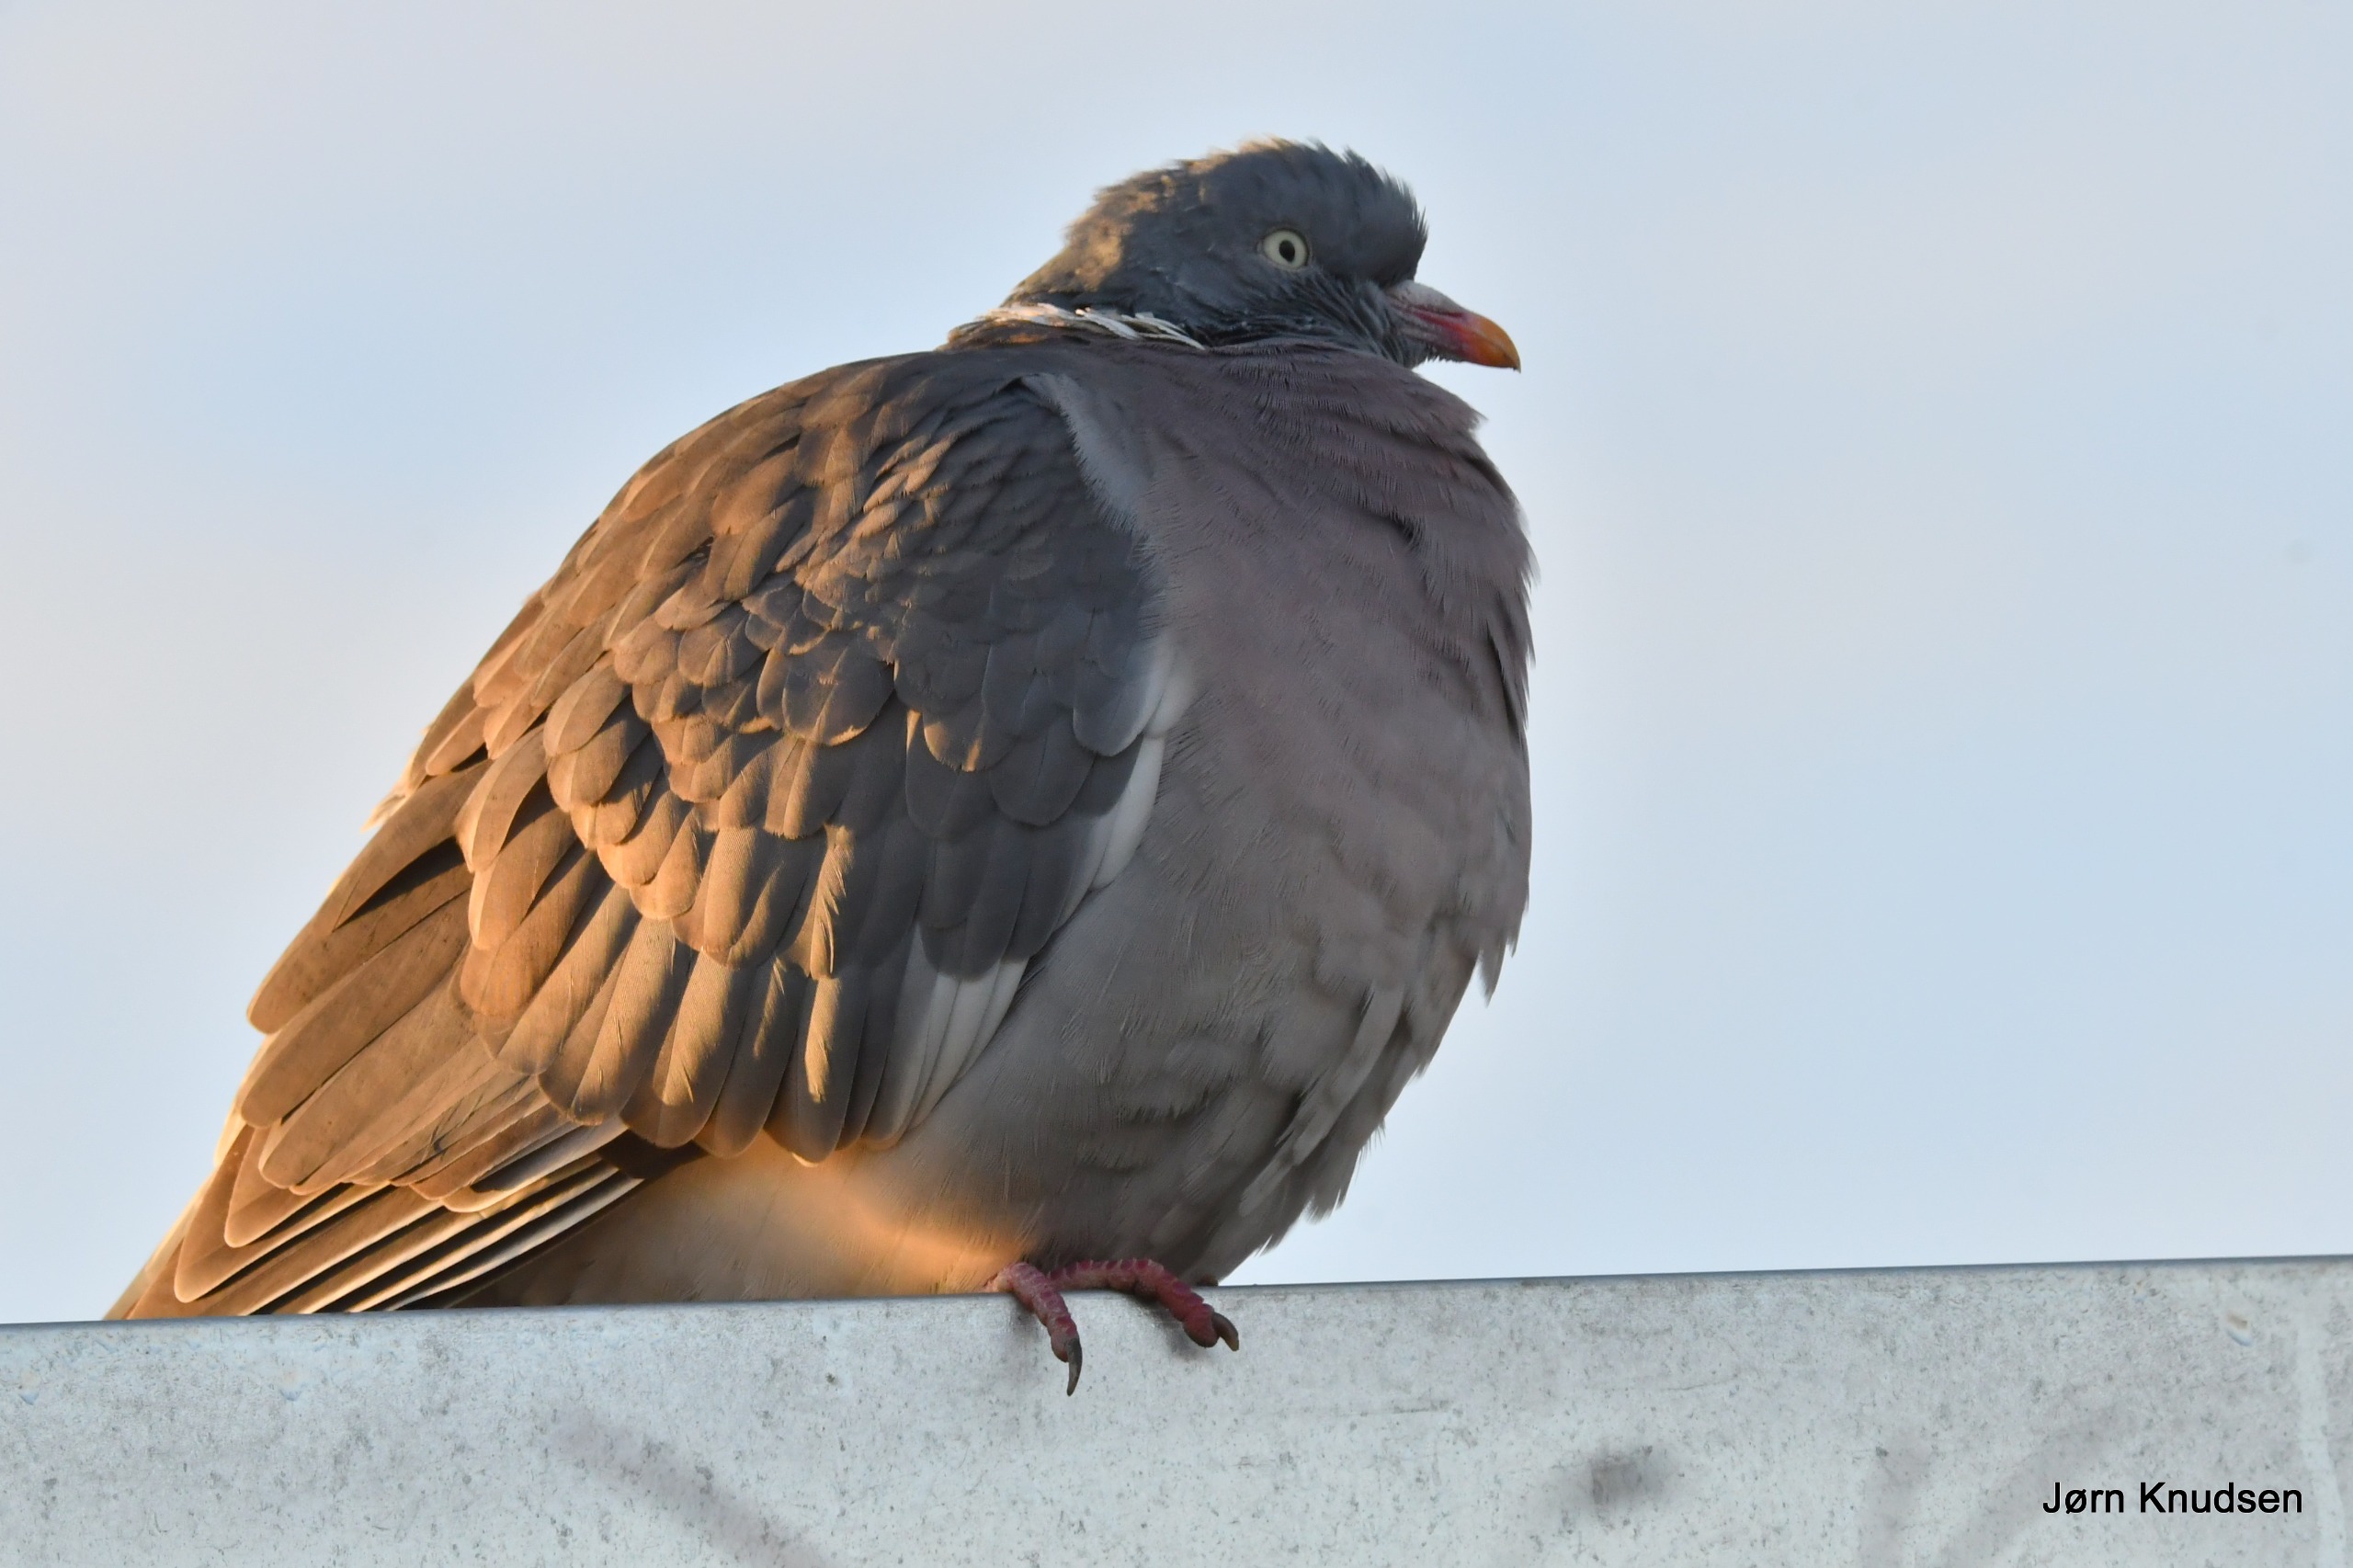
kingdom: Animalia
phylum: Chordata
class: Aves
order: Columbiformes
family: Columbidae
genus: Columba
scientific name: Columba palumbus
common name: Ringdue
